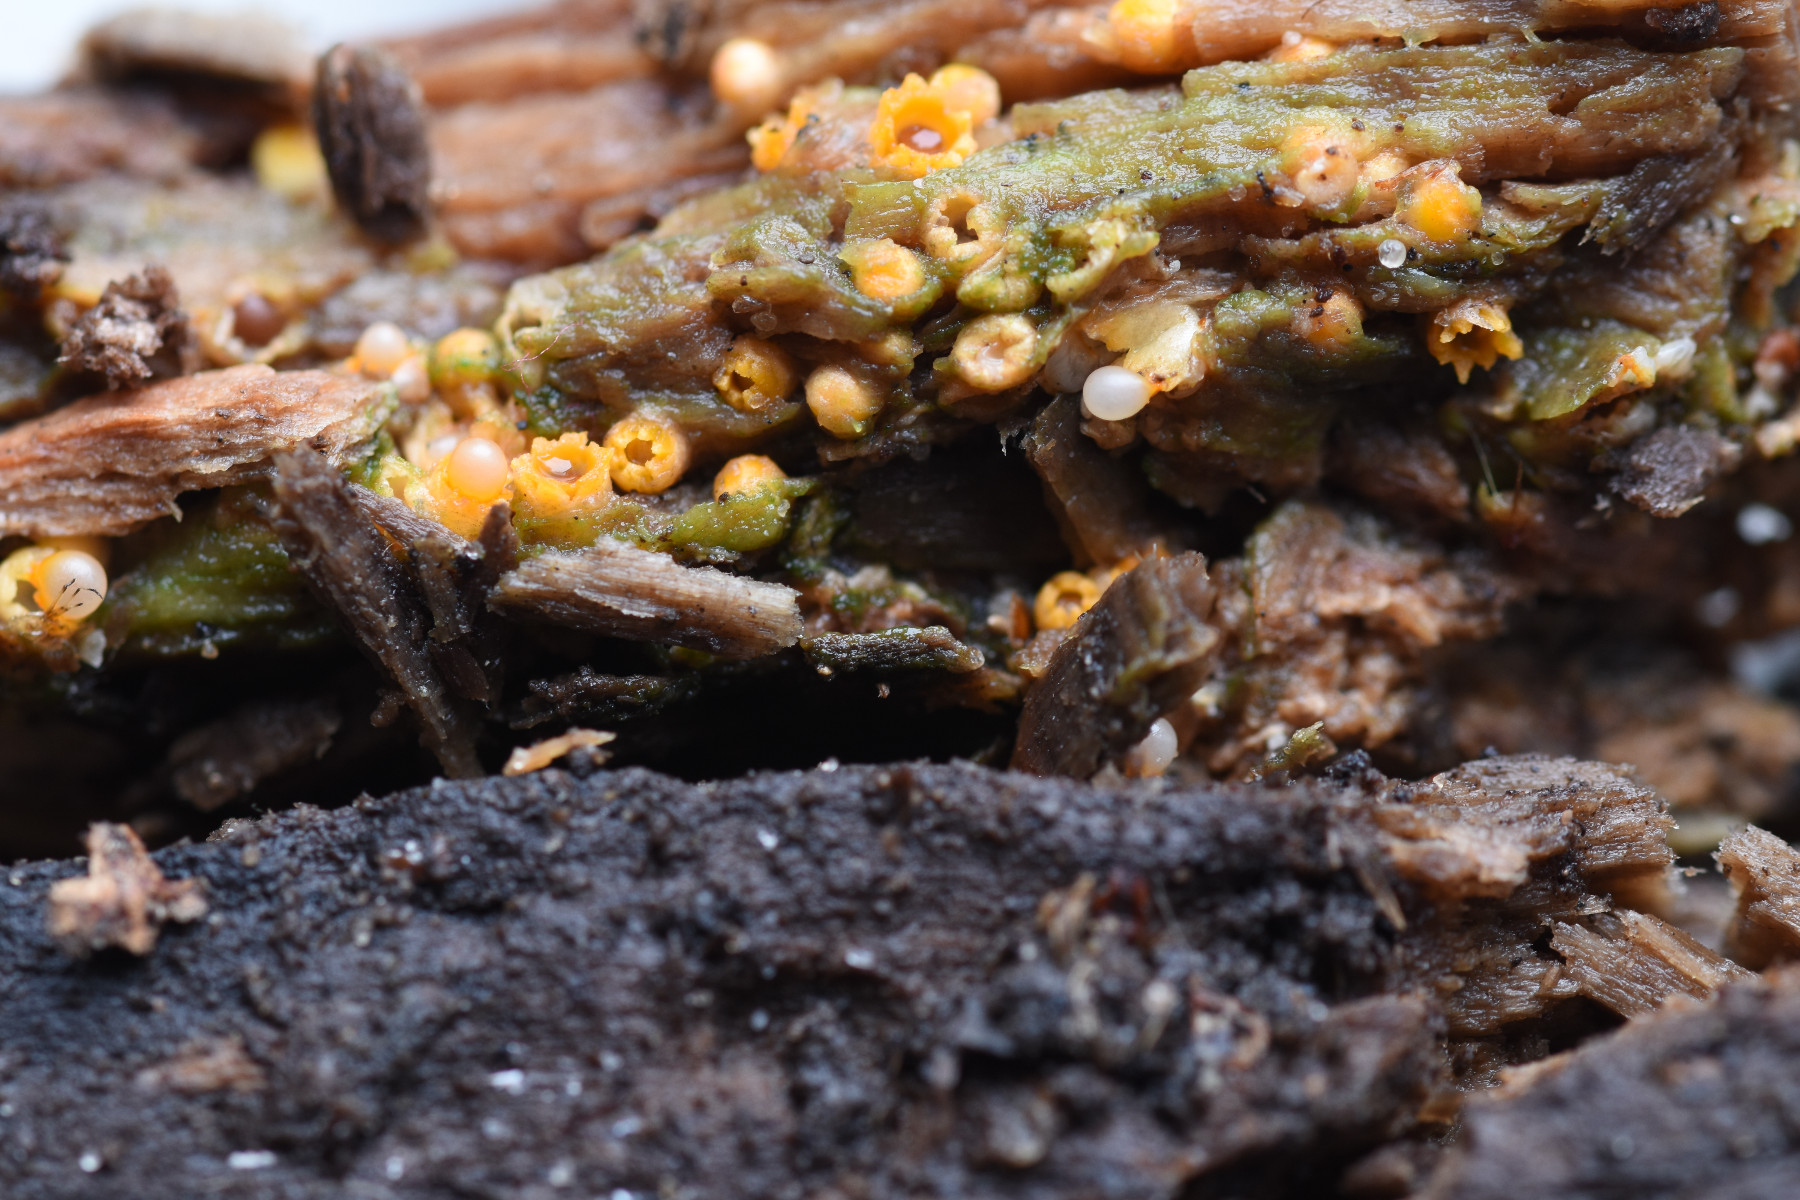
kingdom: Fungi
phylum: Basidiomycota
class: Agaricomycetes
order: Geastrales
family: Geastraceae
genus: Sphaerobolus
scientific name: Sphaerobolus stellatus
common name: bombekaster
